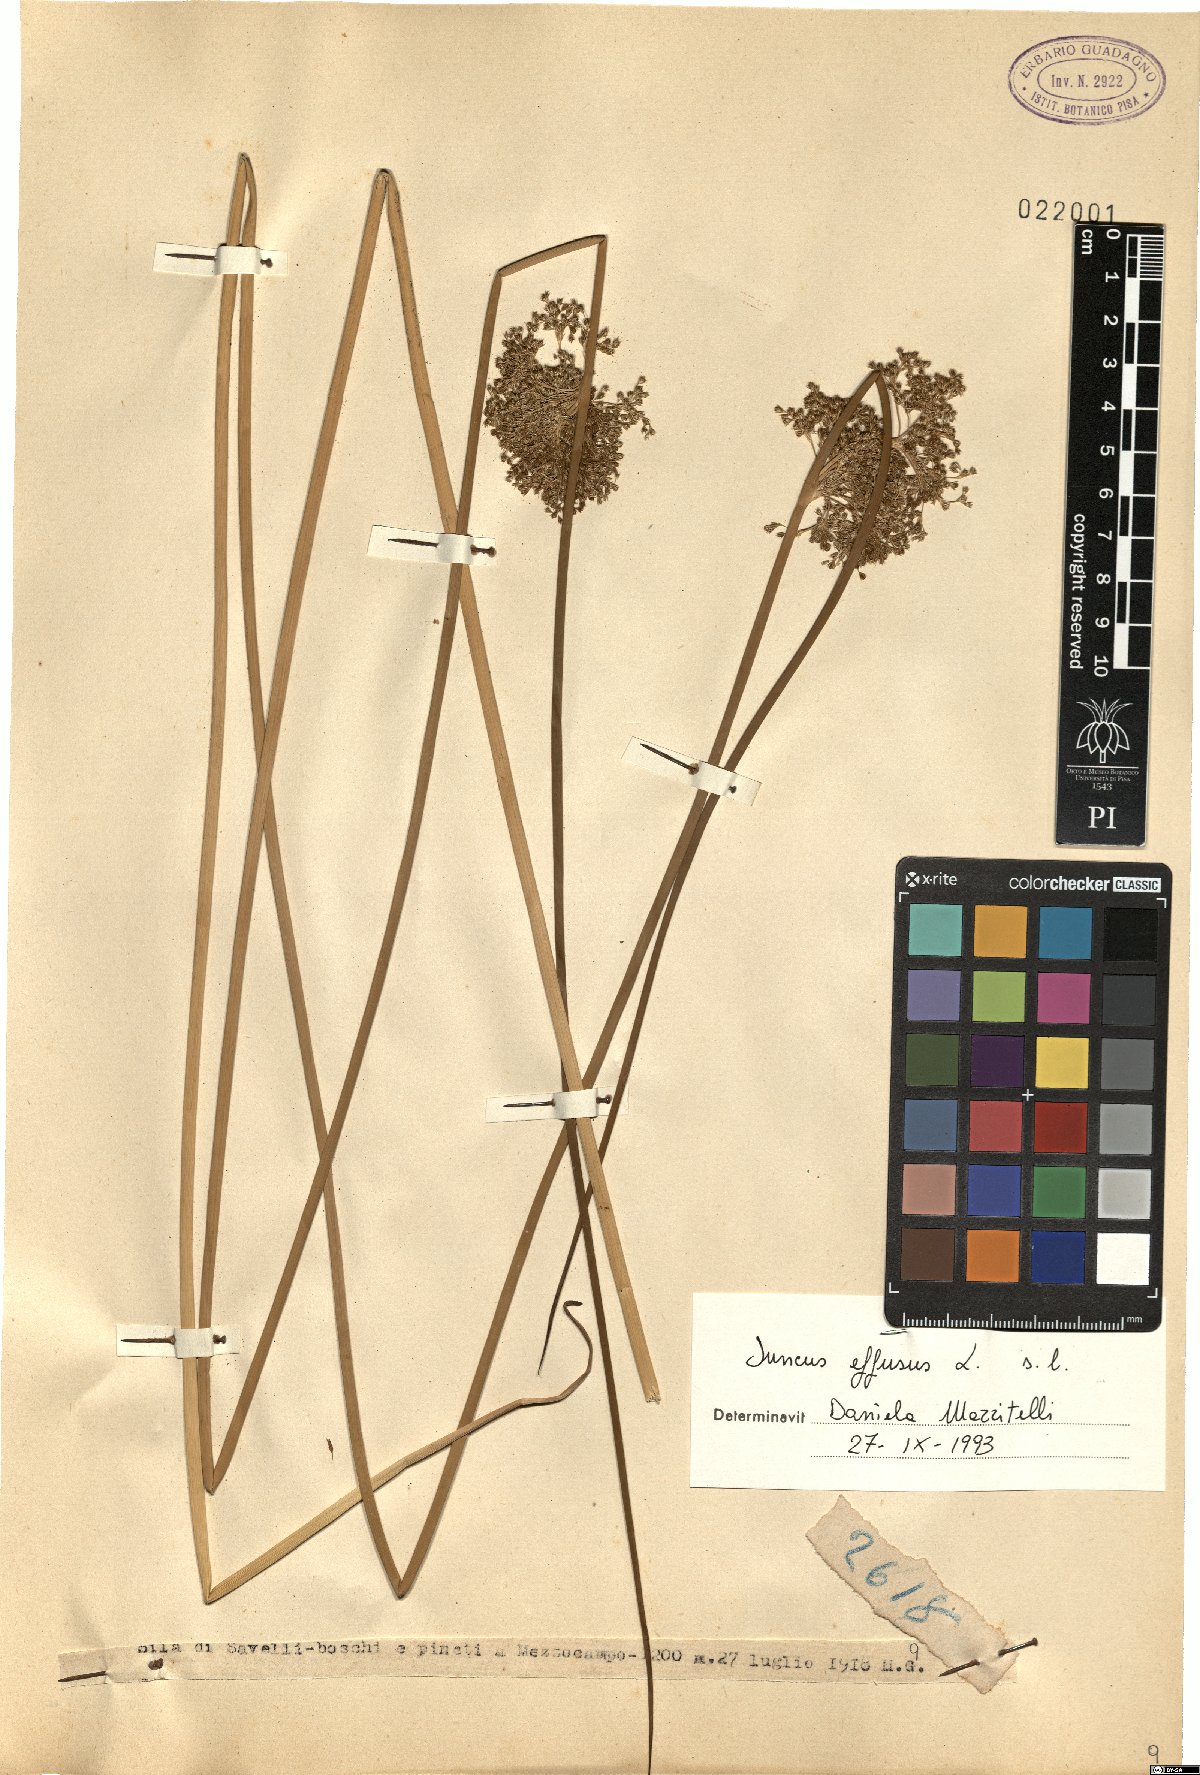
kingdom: Plantae
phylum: Tracheophyta
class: Liliopsida
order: Poales
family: Juncaceae
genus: Juncus
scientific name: Juncus effusus
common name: Soft rush
